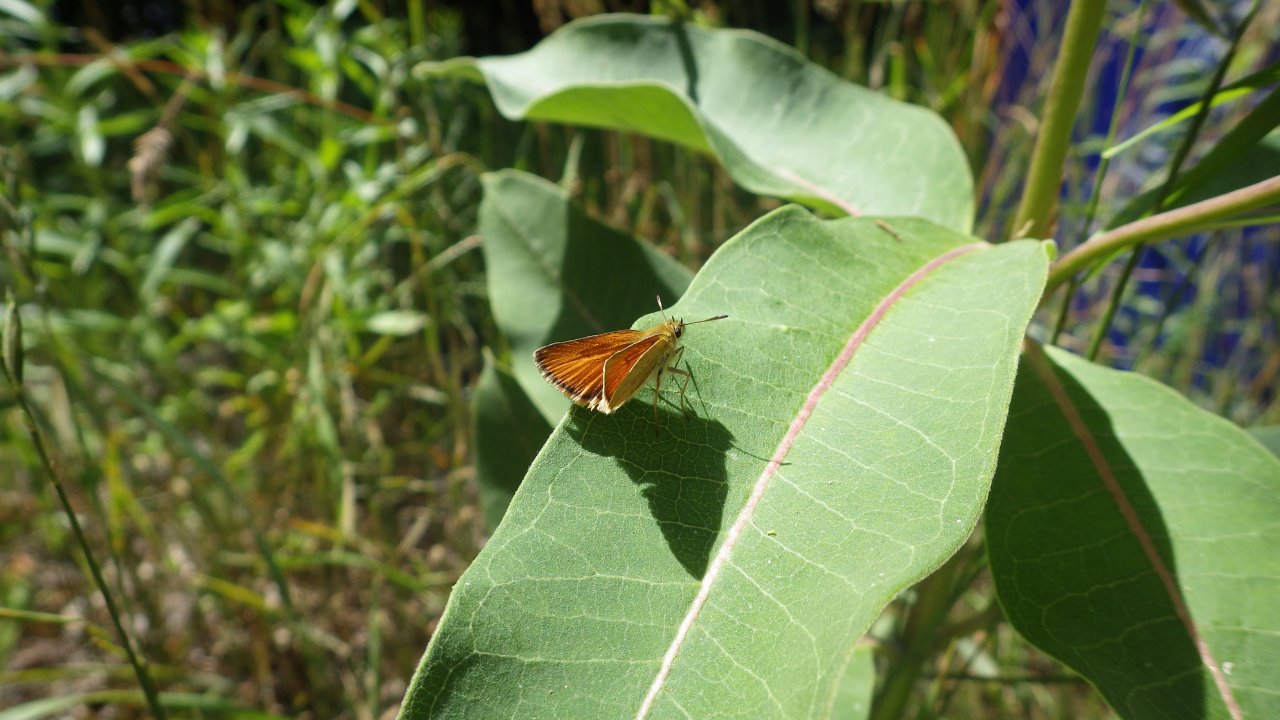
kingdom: Animalia
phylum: Arthropoda
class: Insecta
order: Lepidoptera
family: Hesperiidae
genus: Thymelicus
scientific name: Thymelicus lineola
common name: European Skipper
